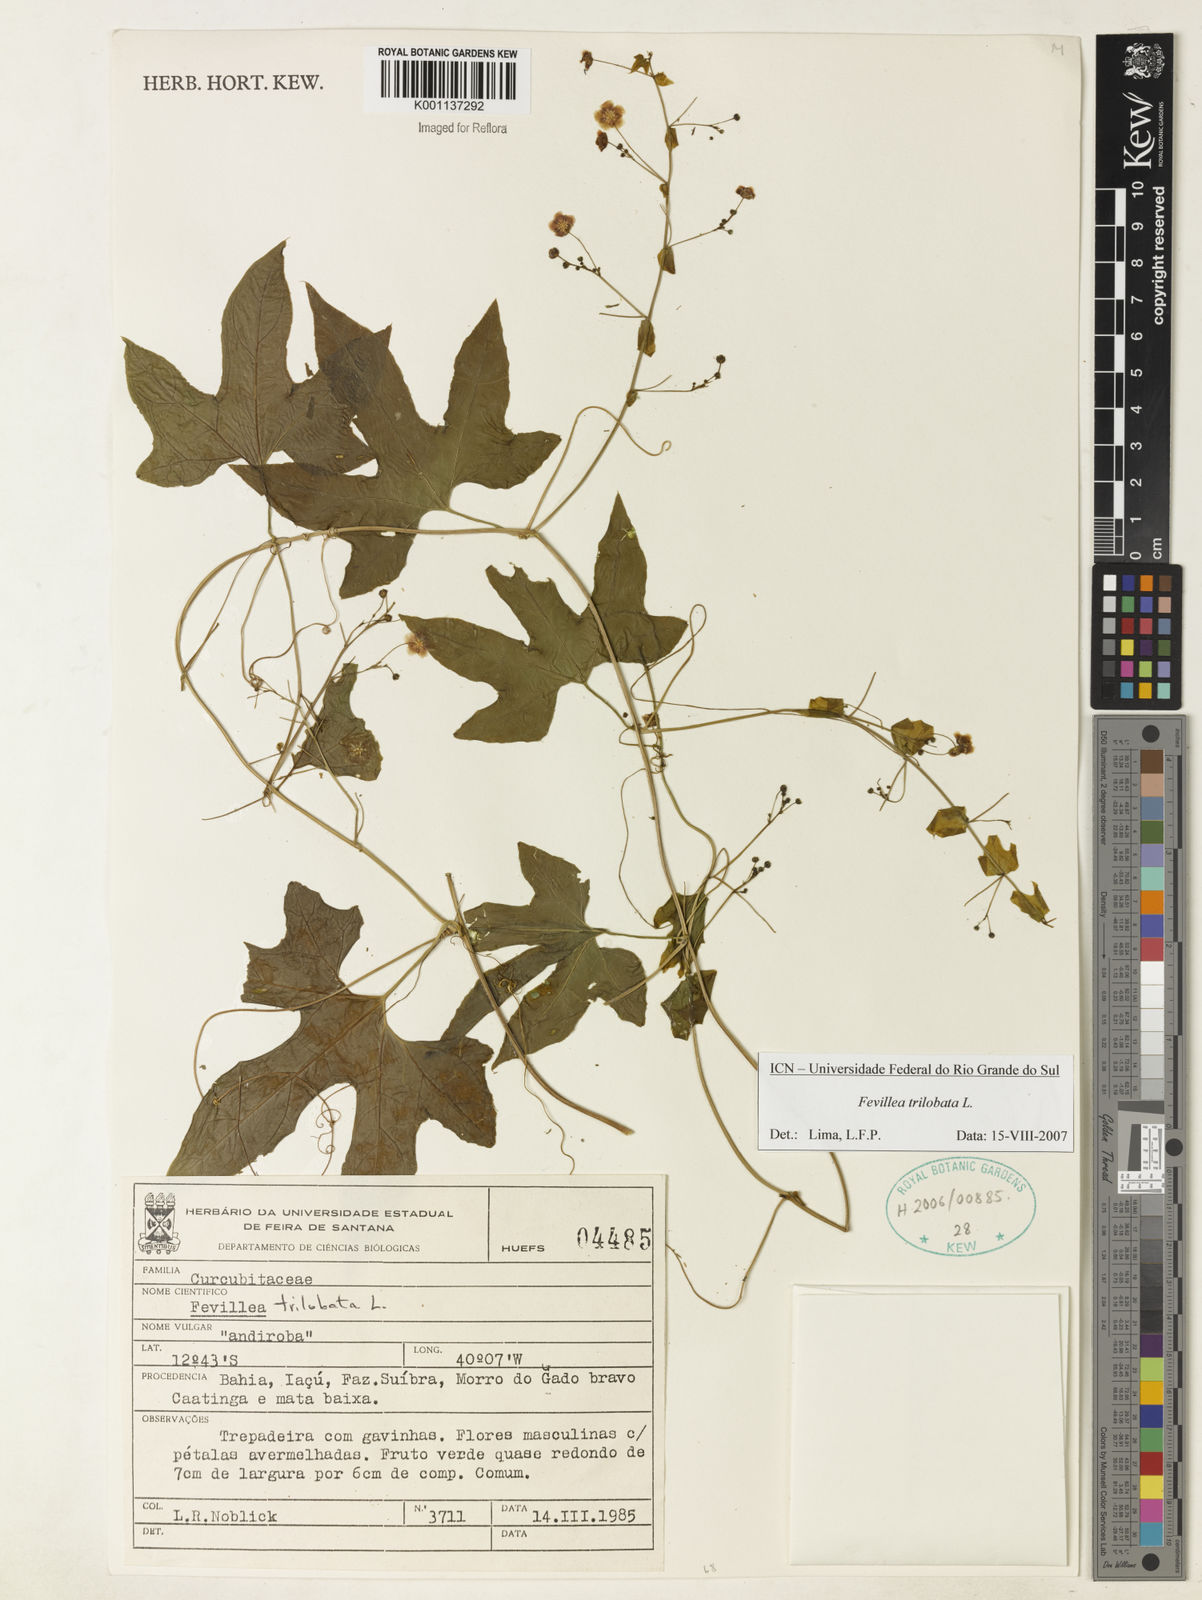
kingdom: Plantae
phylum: Tracheophyta
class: Magnoliopsida
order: Cucurbitales
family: Cucurbitaceae
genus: Fevillea
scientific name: Fevillea trilobata
